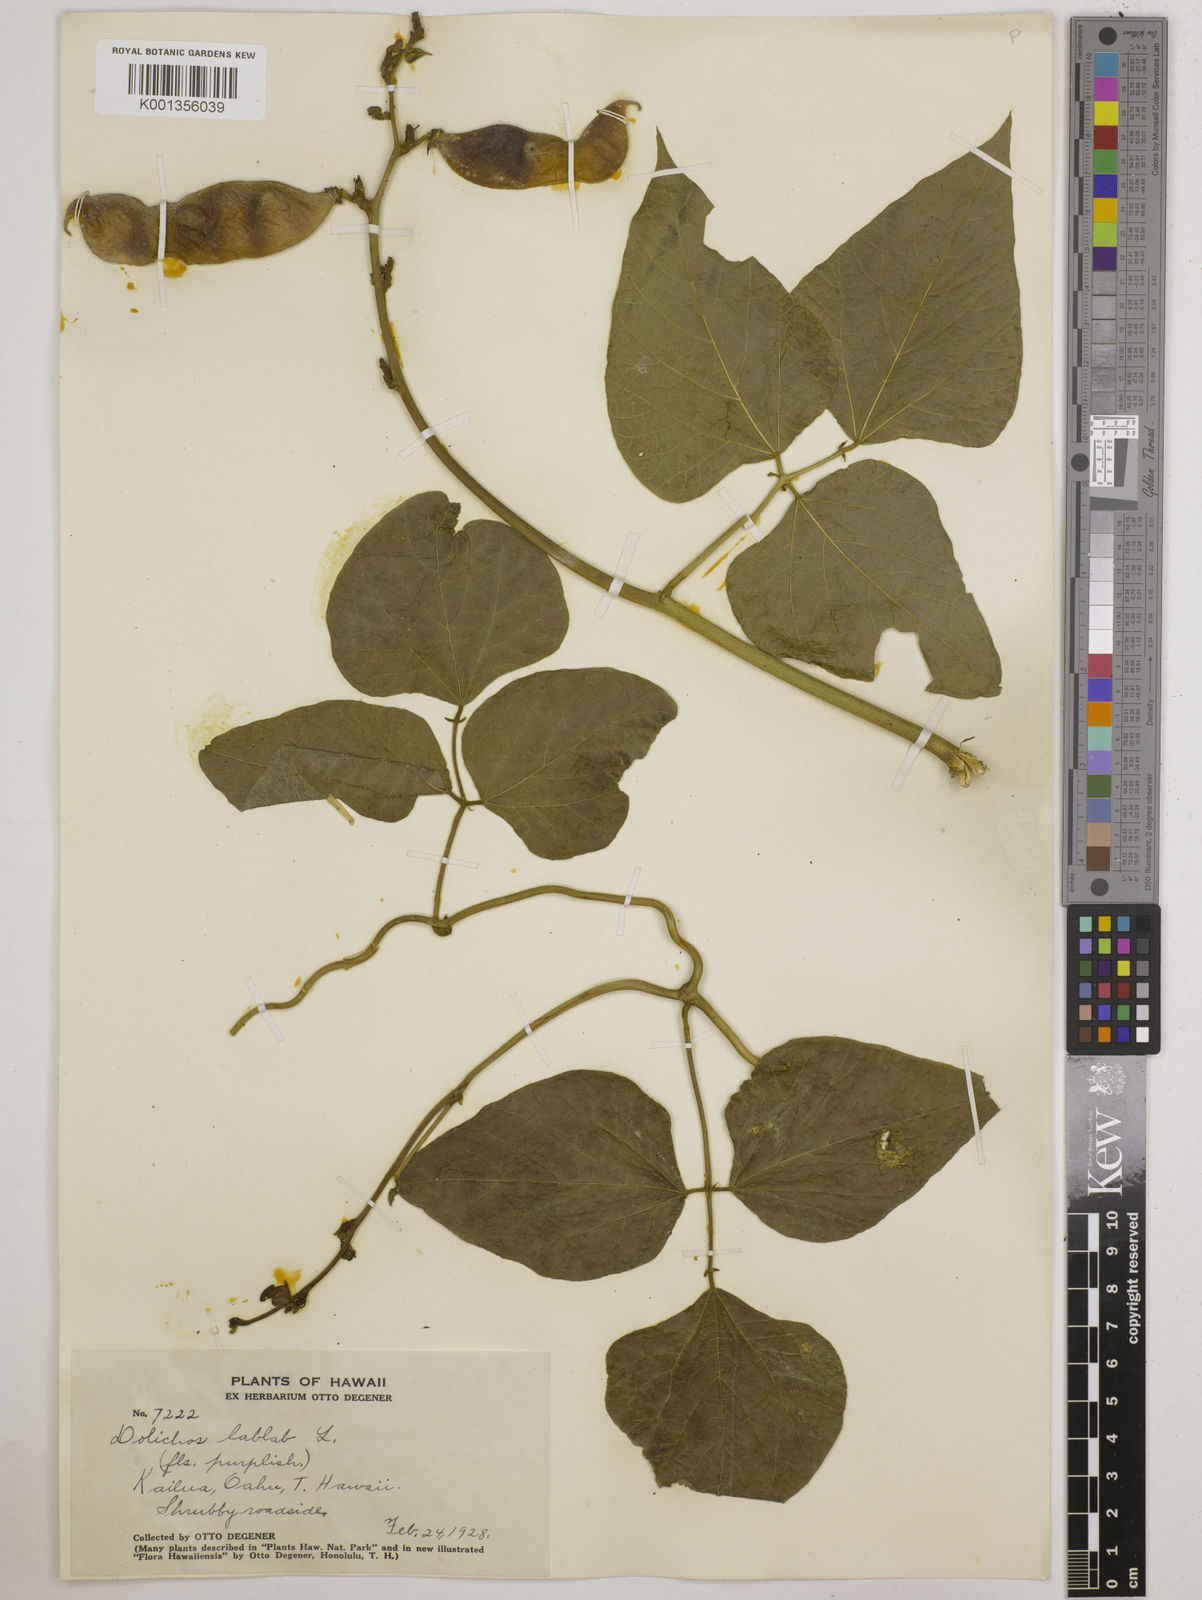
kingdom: Plantae
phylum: Tracheophyta
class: Magnoliopsida
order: Fabales
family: Fabaceae
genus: Lablab
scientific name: Lablab purpureus
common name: Lablab-bean
